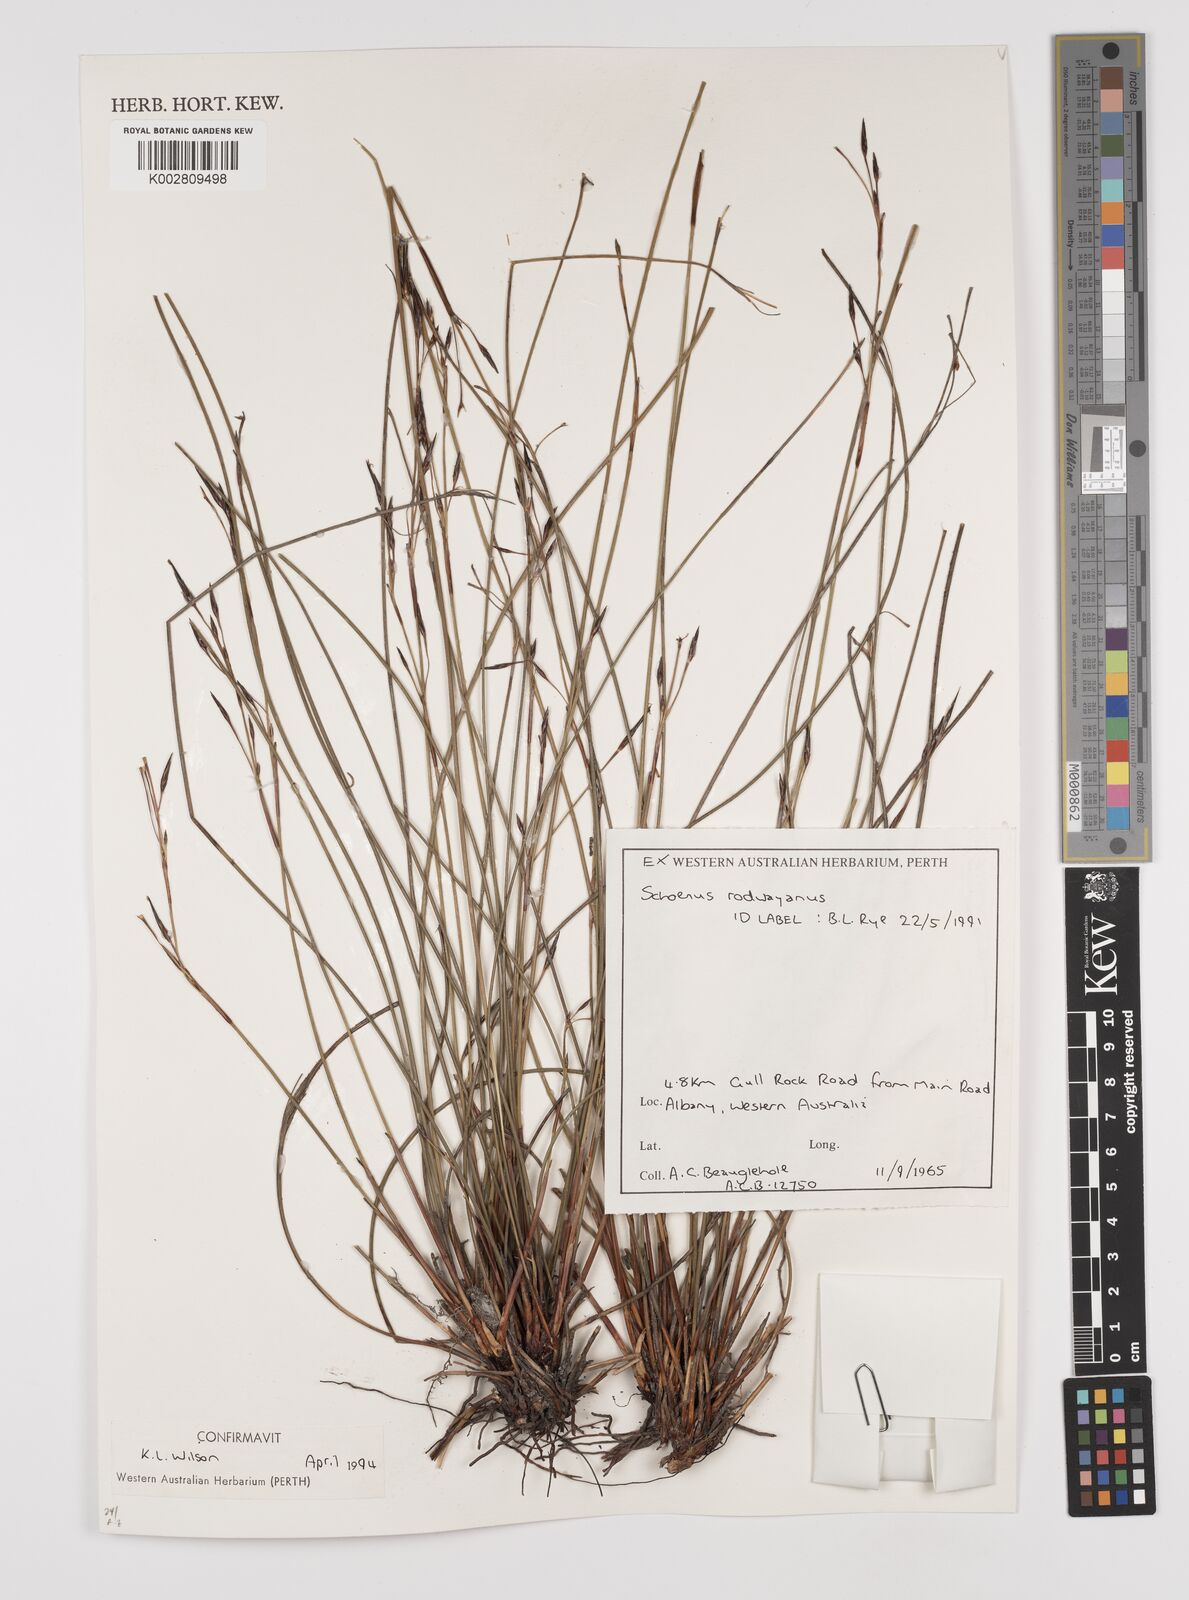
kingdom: Plantae
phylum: Tracheophyta
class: Liliopsida
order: Poales
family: Cyperaceae
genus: Schoenus
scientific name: Schoenus rodwayanus
